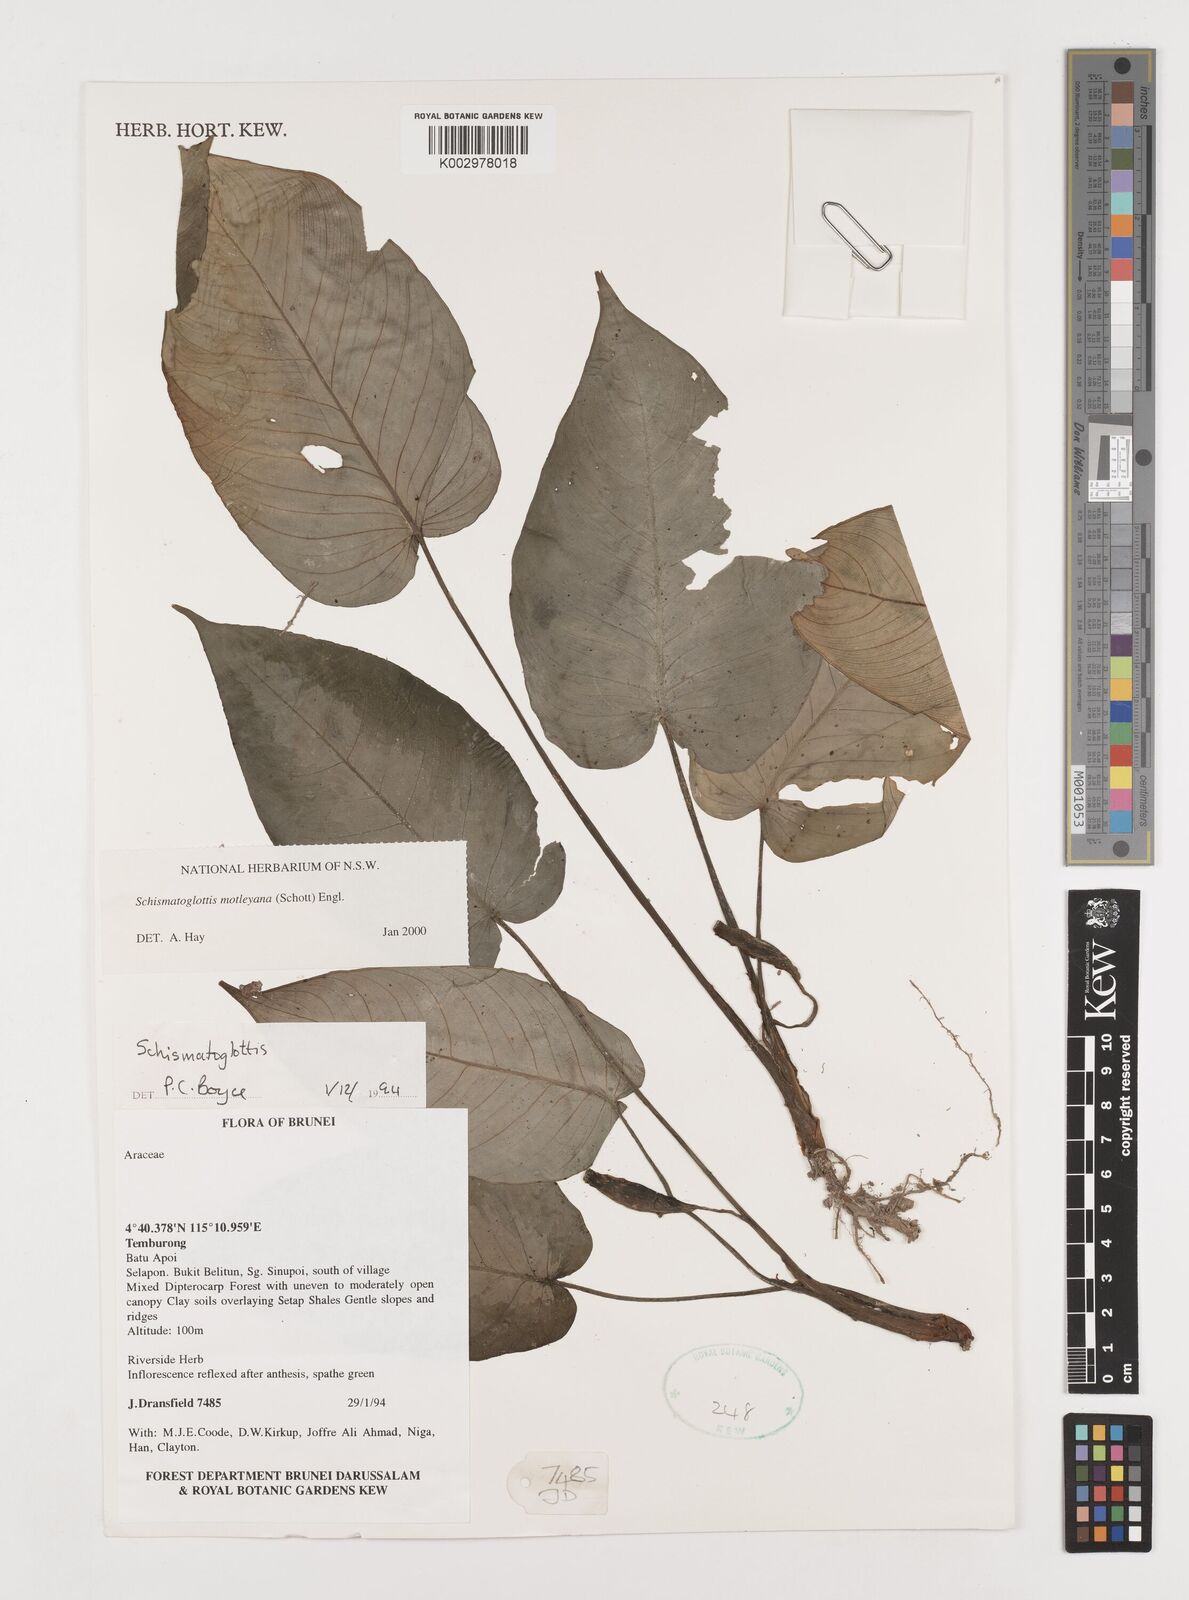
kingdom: Plantae
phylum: Tracheophyta
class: Liliopsida
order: Alismatales
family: Araceae
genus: Schismatoglottis
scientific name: Schismatoglottis motleyana
